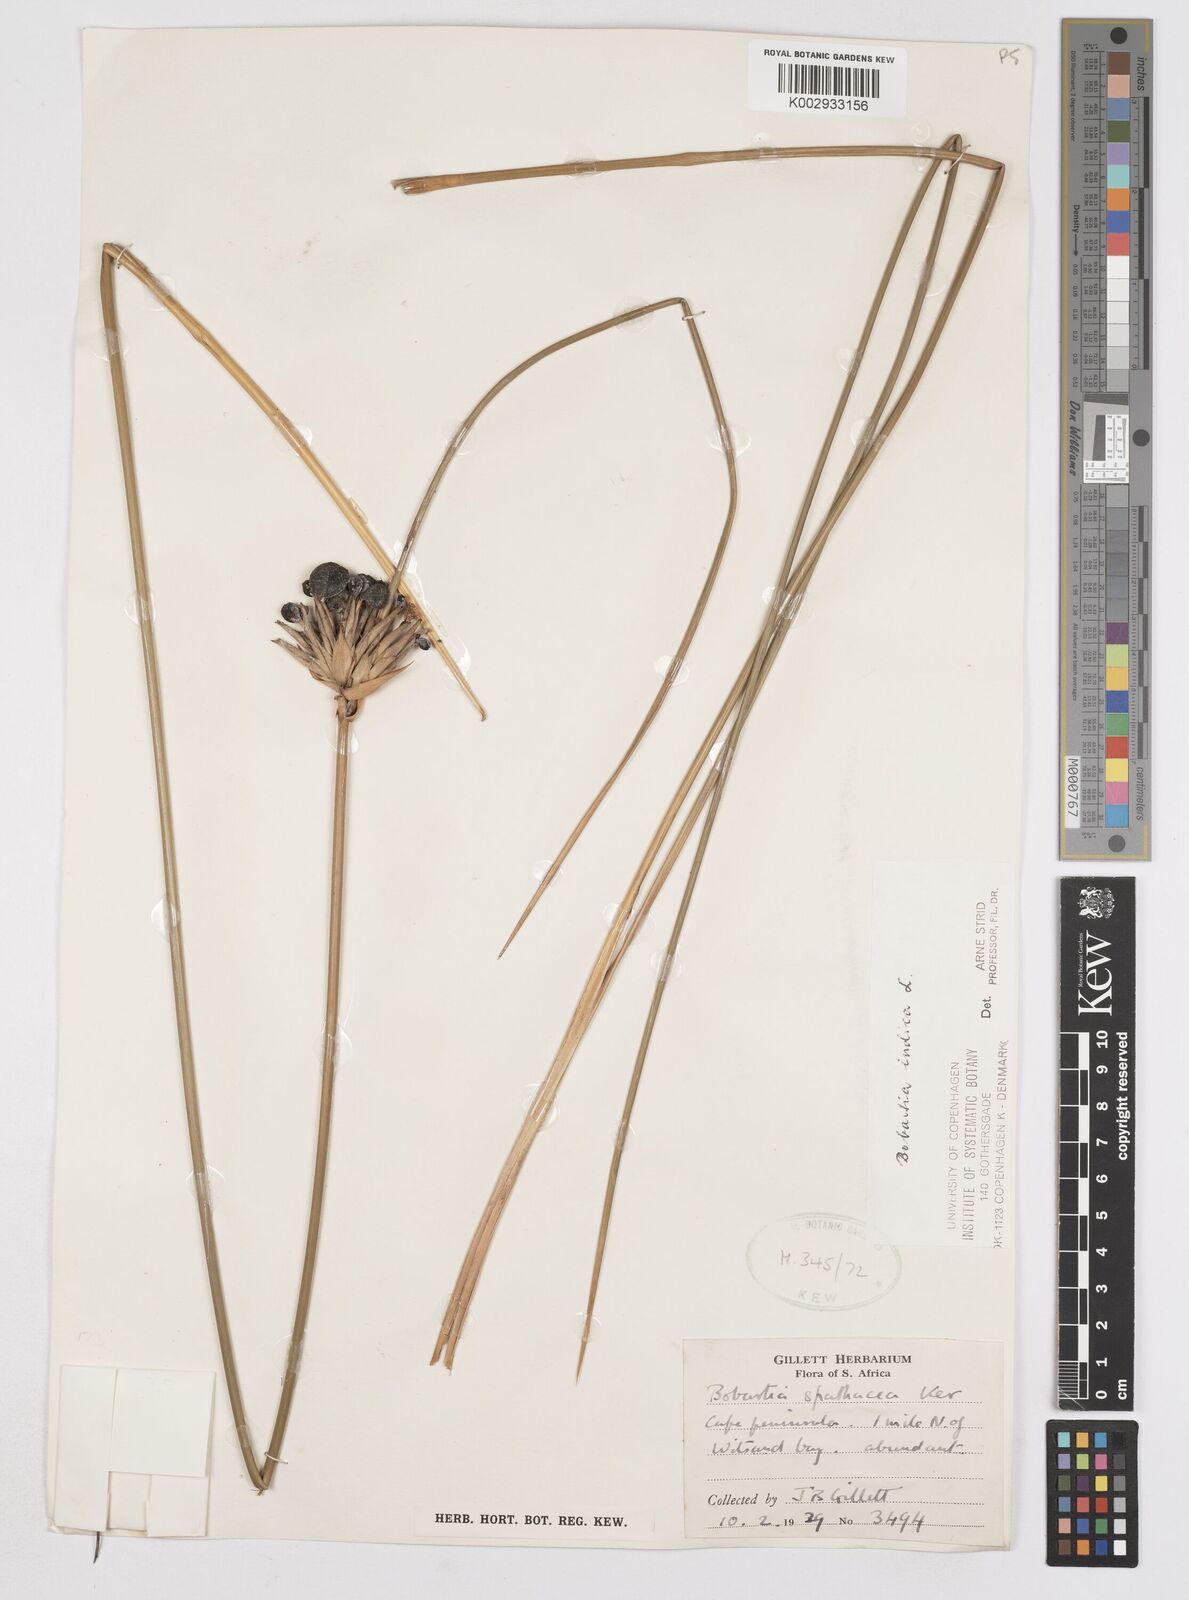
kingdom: Plantae
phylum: Tracheophyta
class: Liliopsida
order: Asparagales
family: Iridaceae
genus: Bobartia
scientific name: Bobartia indica
